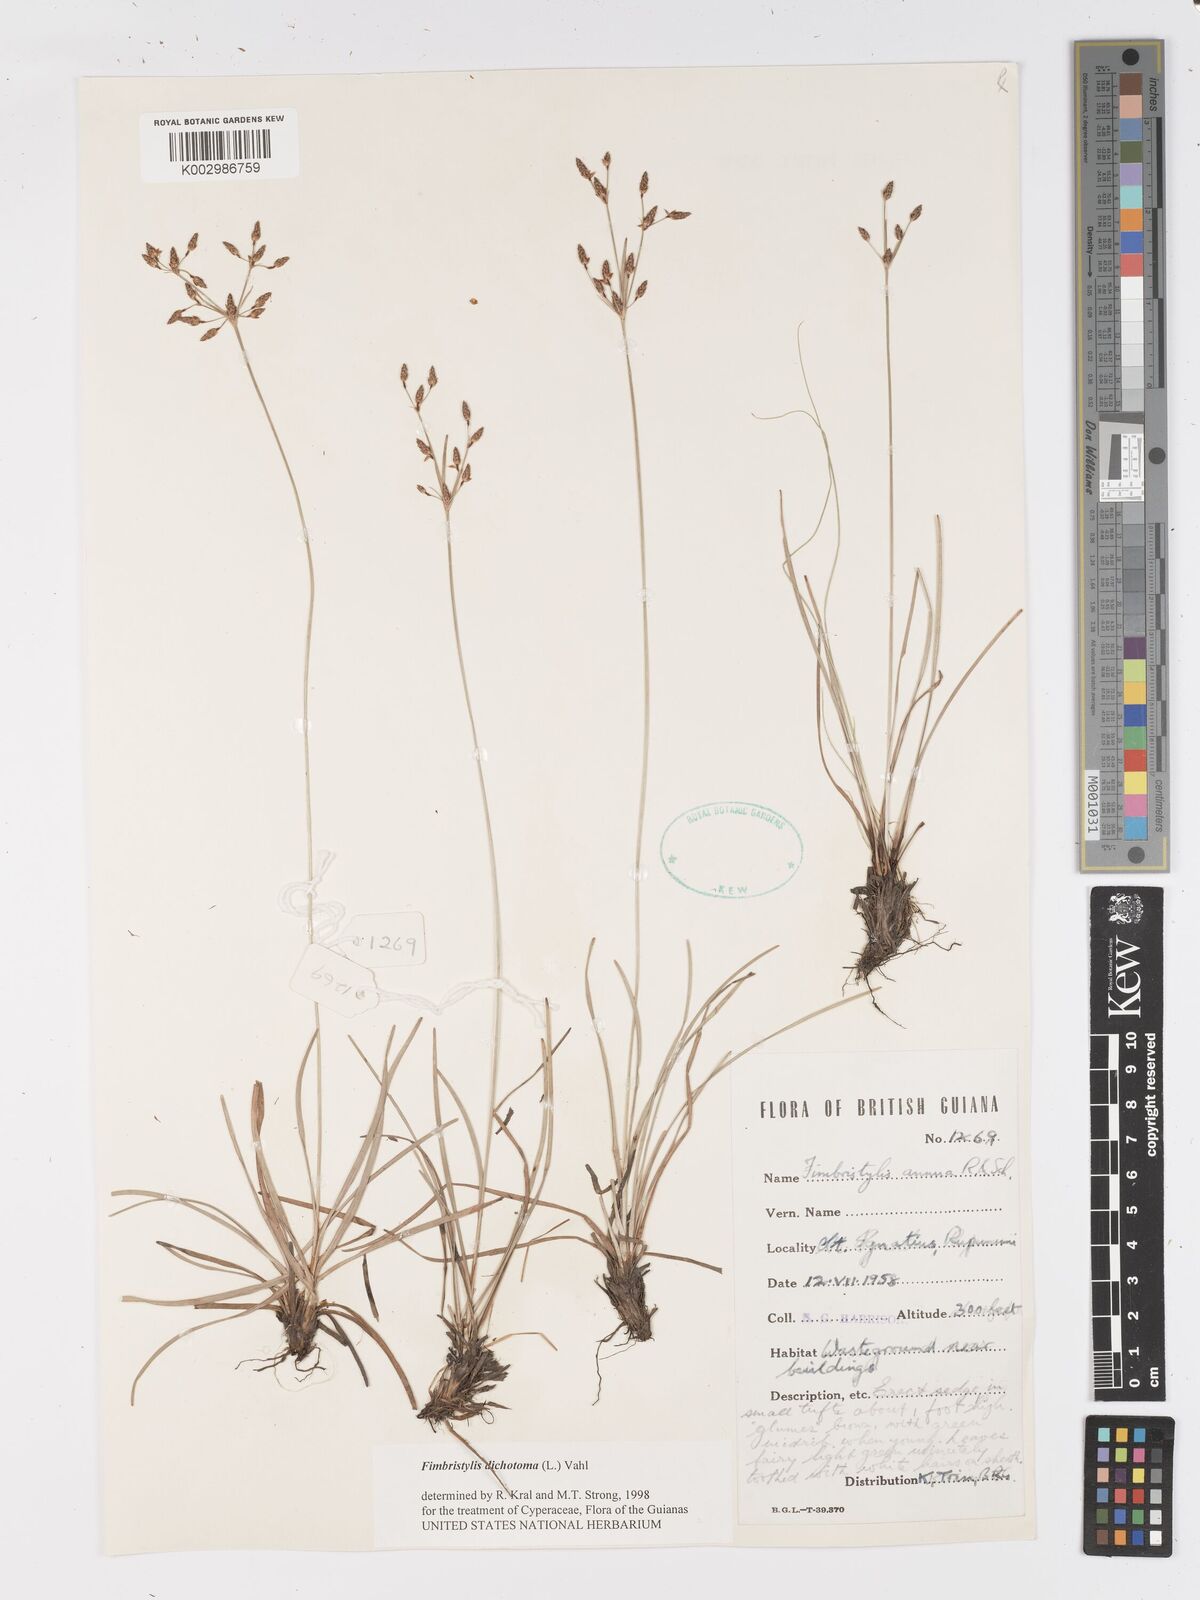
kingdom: Plantae
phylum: Tracheophyta
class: Liliopsida
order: Poales
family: Cyperaceae
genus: Fimbristylis
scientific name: Fimbristylis dichotoma
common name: Forked fimbry
